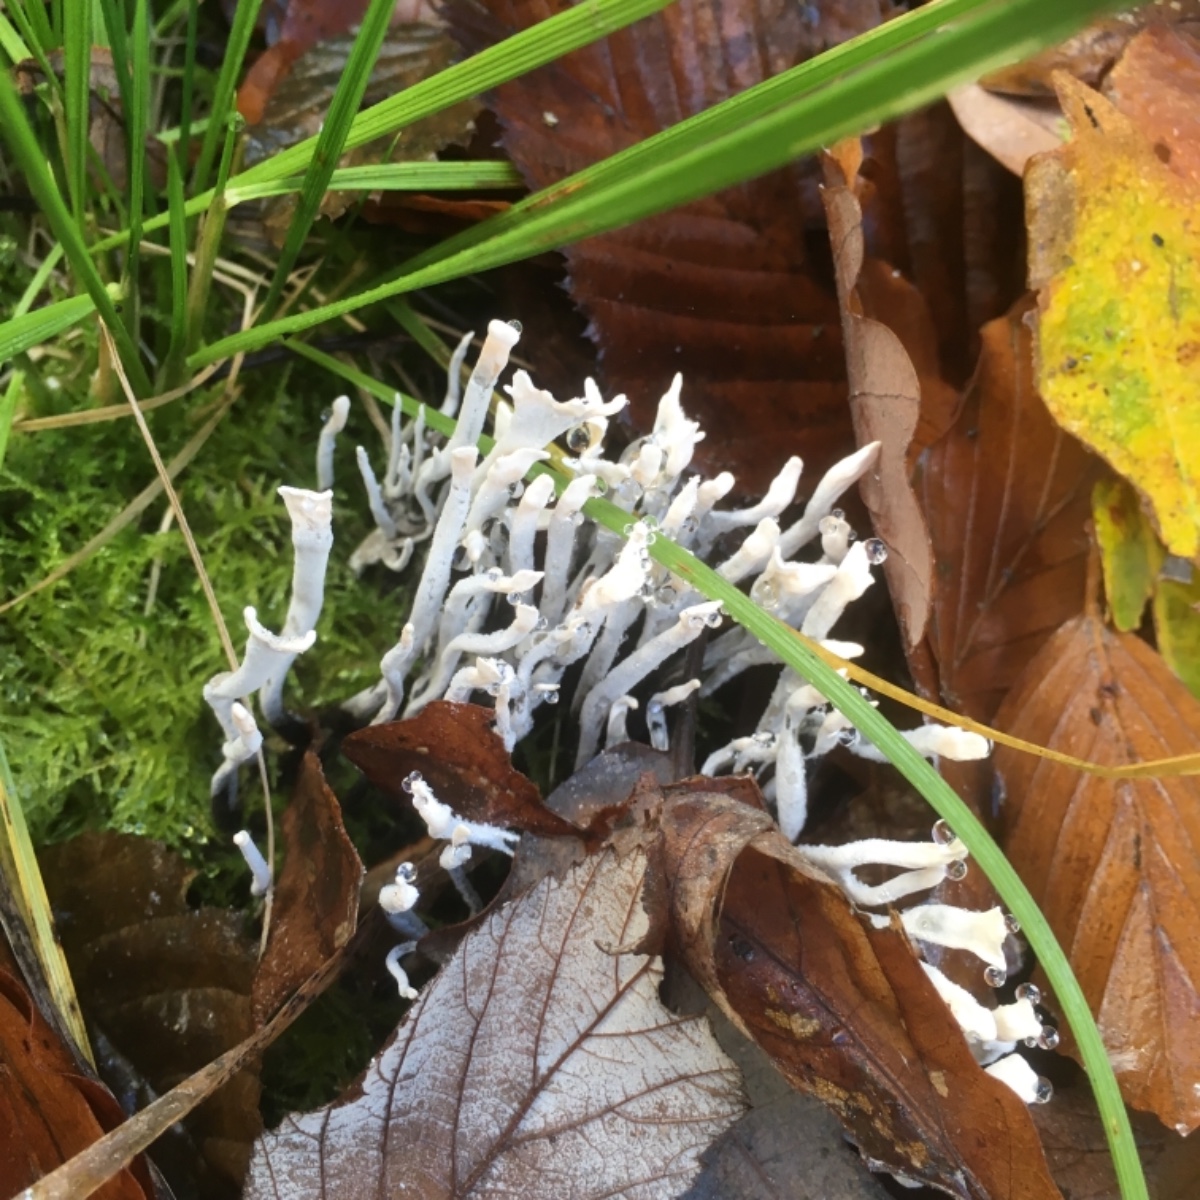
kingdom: Fungi
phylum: Ascomycota
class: Sordariomycetes
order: Xylariales
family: Xylariaceae
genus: Xylaria
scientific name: Xylaria hypoxylon
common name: grenet stødsvamp
